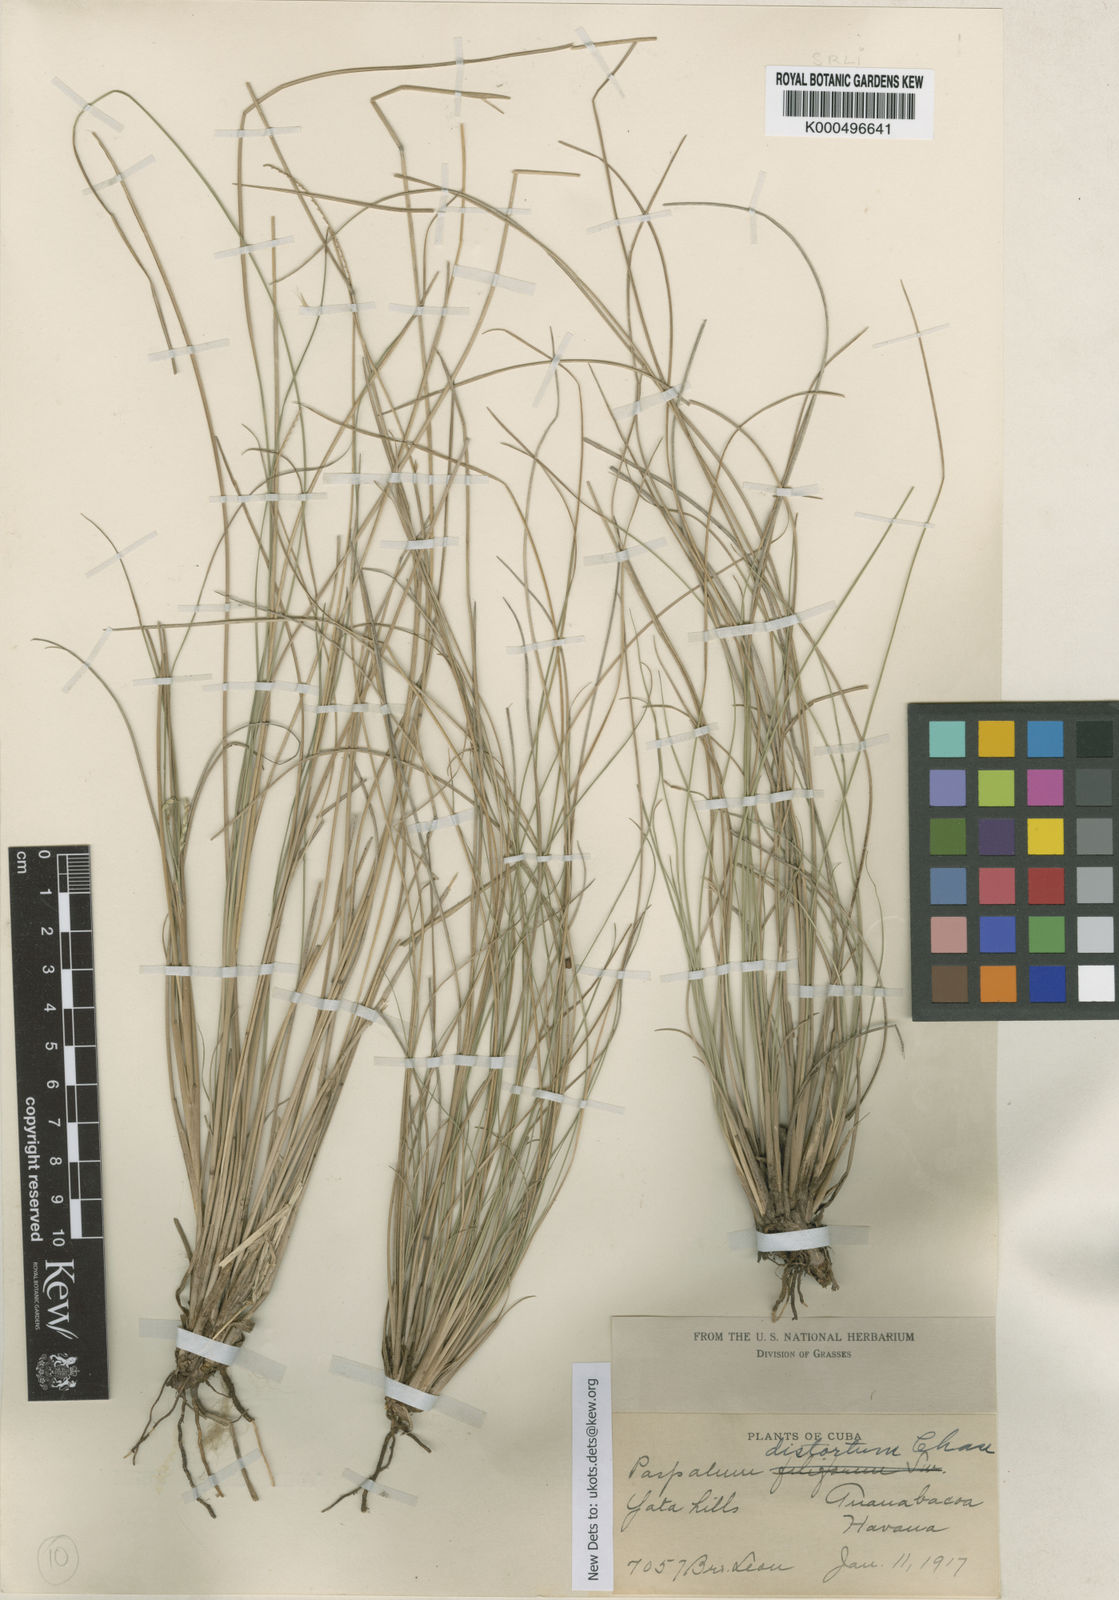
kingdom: Plantae
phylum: Tracheophyta
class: Liliopsida
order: Poales
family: Poaceae
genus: Paspalum
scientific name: Paspalum distortum
